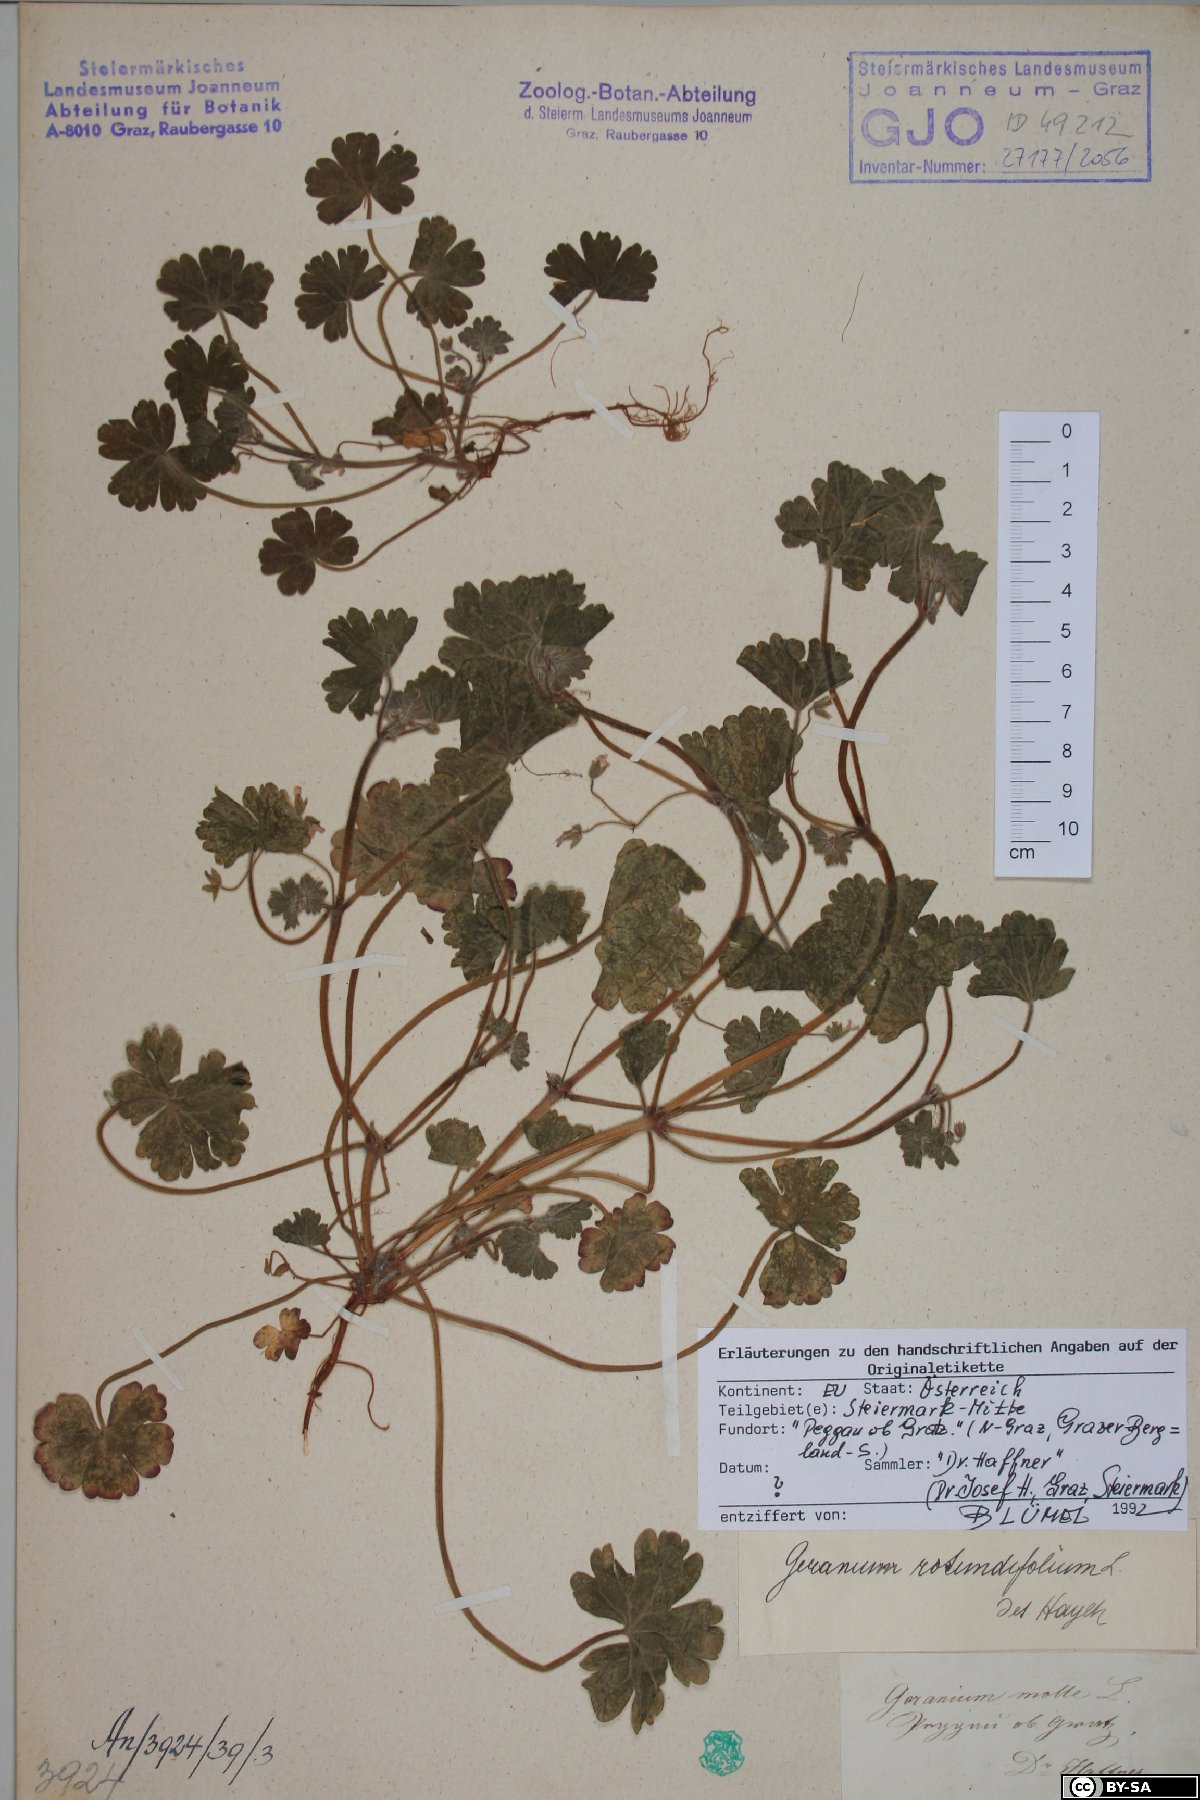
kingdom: Plantae
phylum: Tracheophyta
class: Magnoliopsida
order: Geraniales
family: Geraniaceae
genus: Geranium
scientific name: Geranium rotundifolium
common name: Round-leaved crane's-bill
